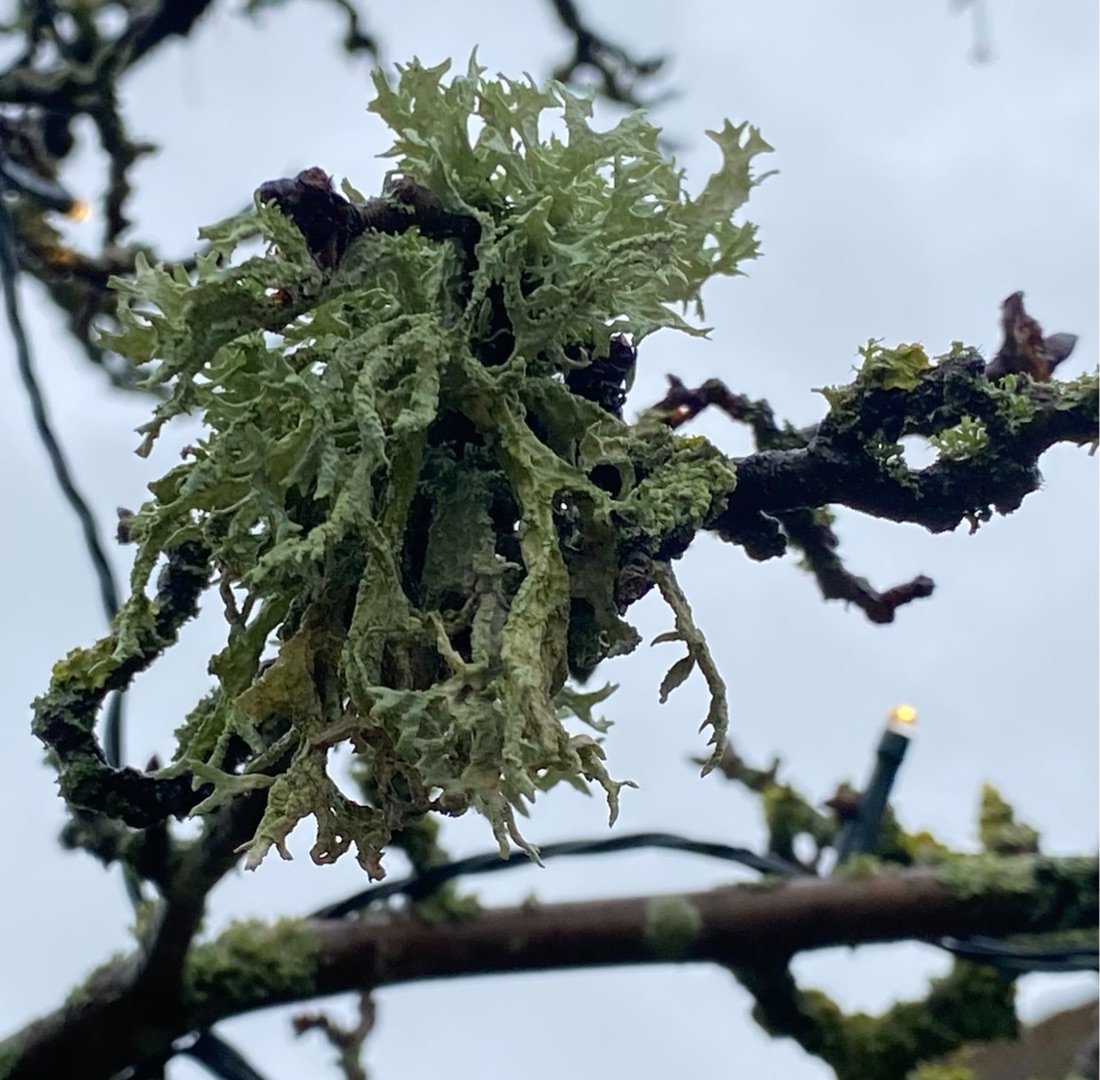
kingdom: Fungi
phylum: Ascomycota
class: Lecanoromycetes
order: Lecanorales
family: Parmeliaceae
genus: Evernia
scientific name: Evernia prunastri
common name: Almindelig slåenlav
